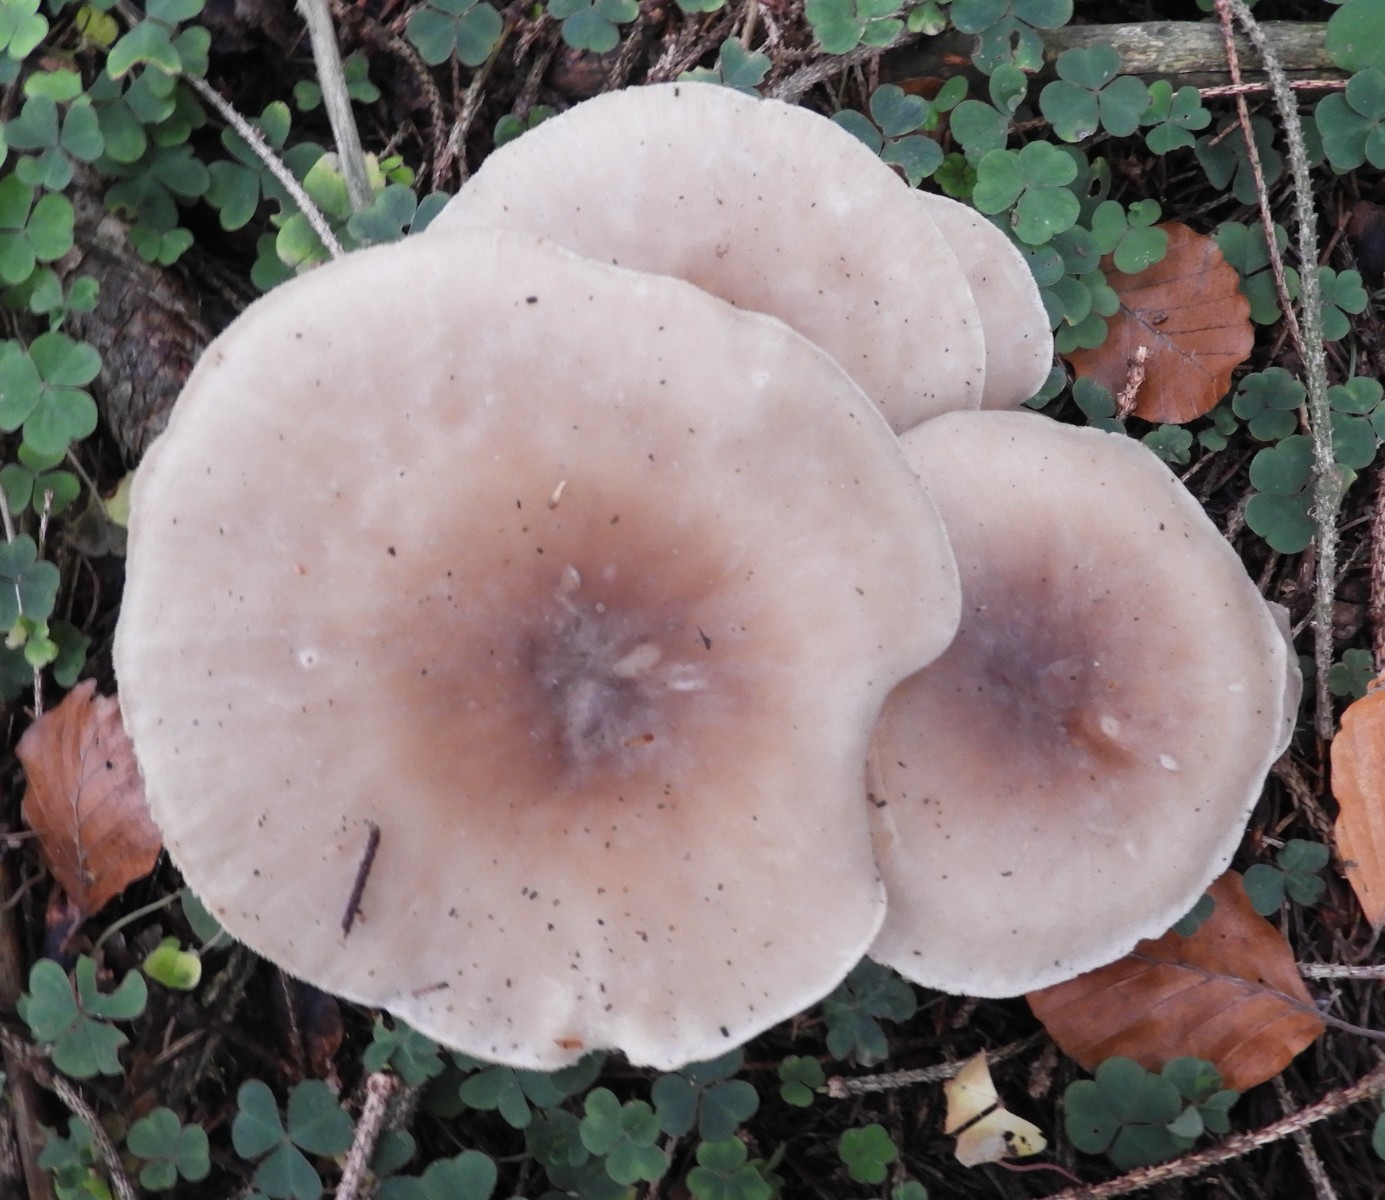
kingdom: Fungi
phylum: Basidiomycota
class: Agaricomycetes
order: Agaricales
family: Tricholomataceae
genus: Clitocybe
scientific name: Clitocybe nebularis
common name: tåge-tragthat
